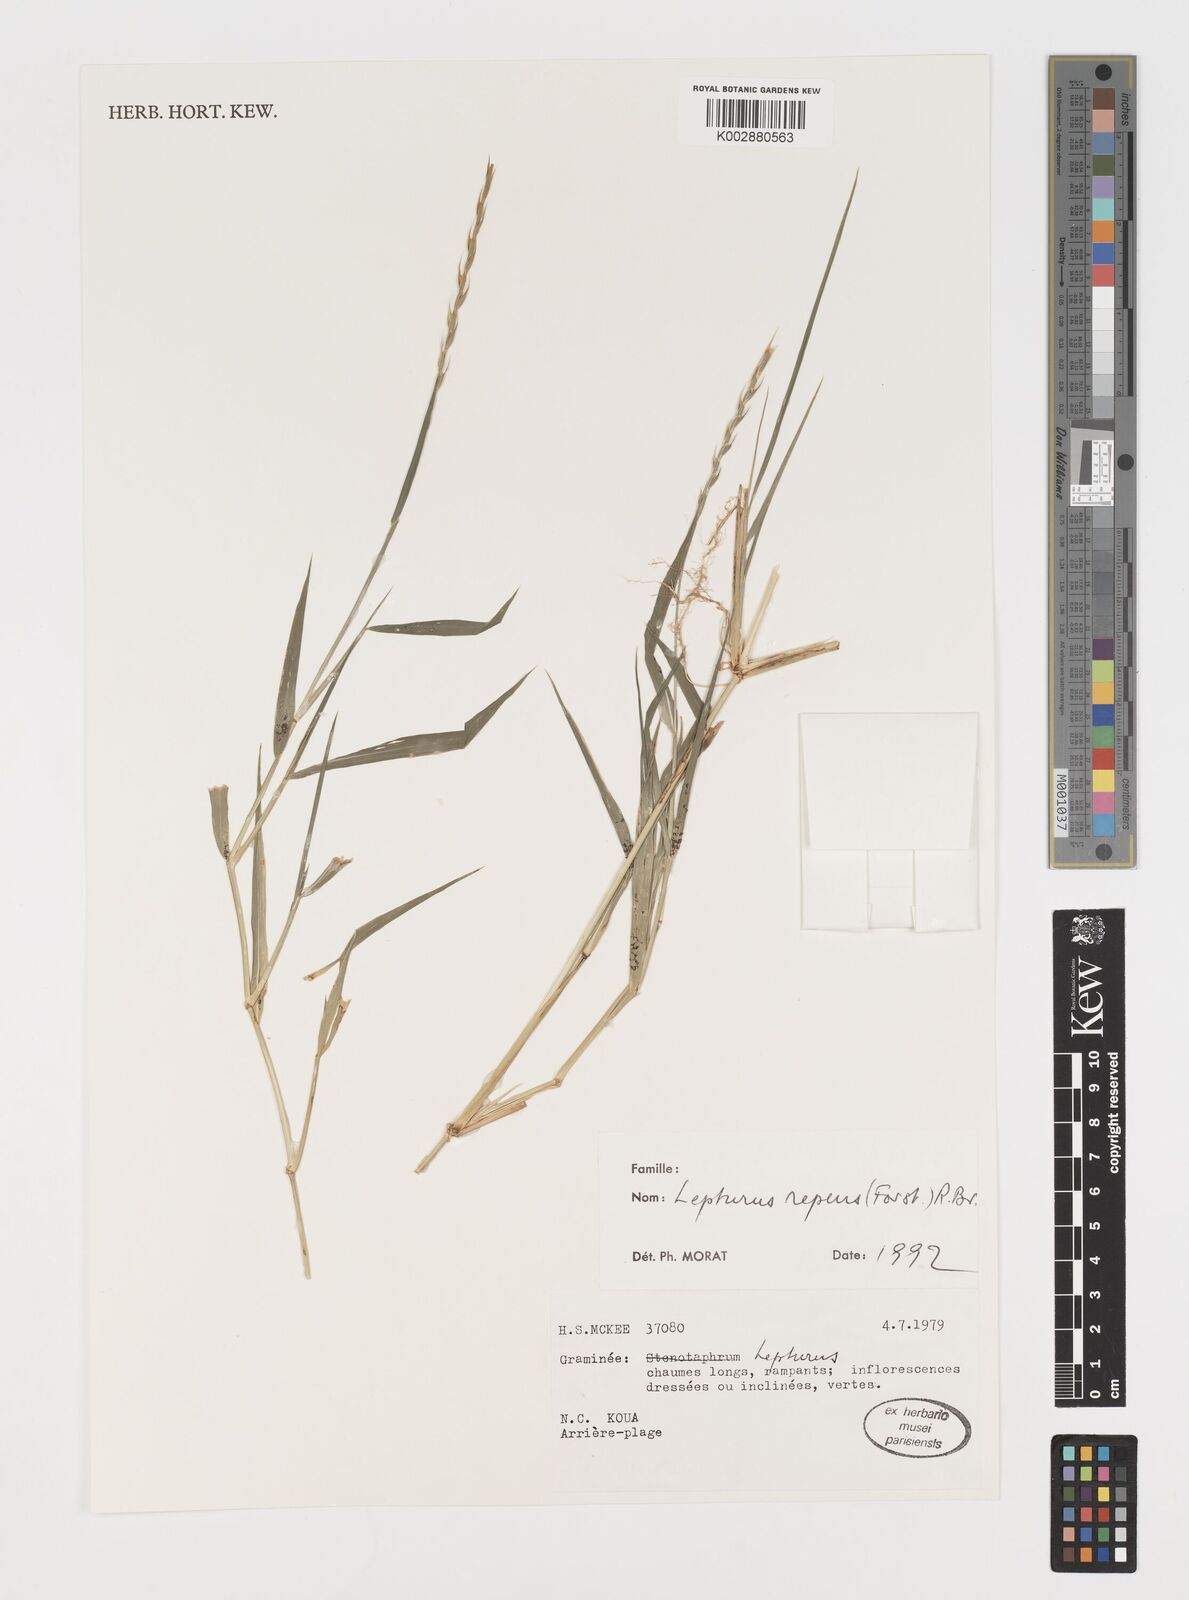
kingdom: Plantae
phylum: Tracheophyta
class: Liliopsida
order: Poales
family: Poaceae
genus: Lepturus
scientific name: Lepturus repens
